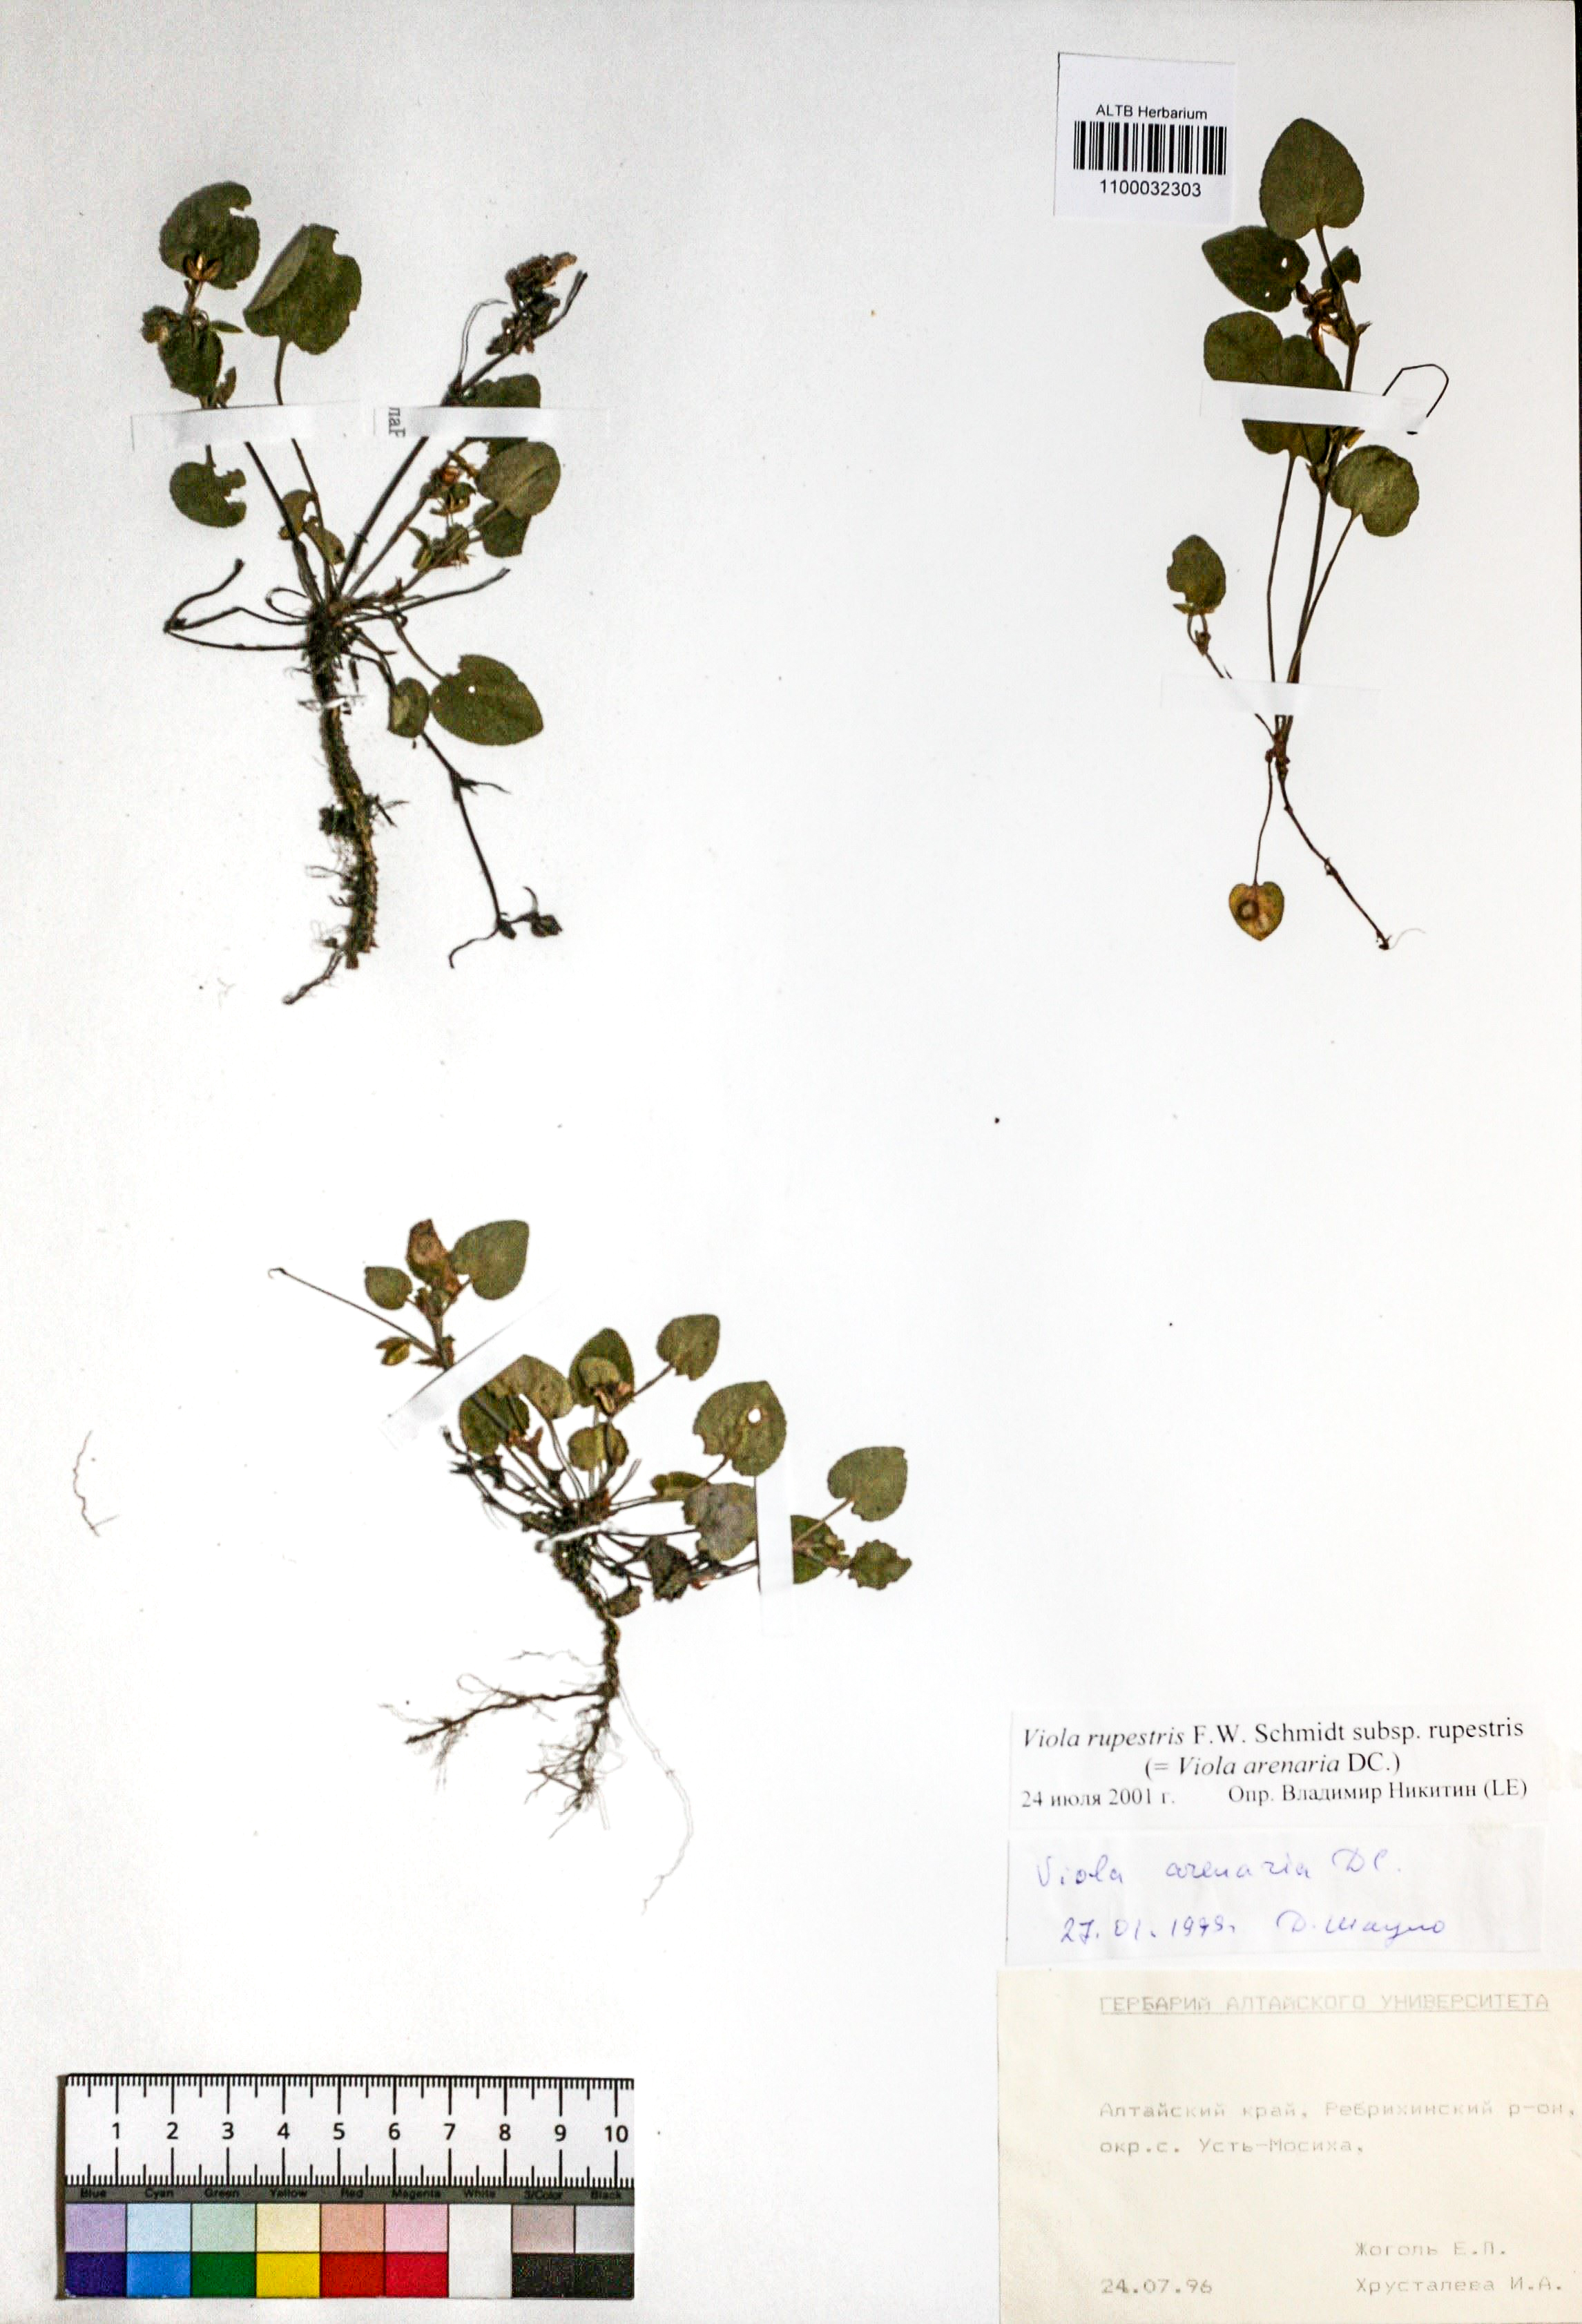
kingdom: Plantae
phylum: Tracheophyta
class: Magnoliopsida
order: Malpighiales
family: Violaceae
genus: Viola
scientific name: Viola rupestris
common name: Teesdale violet
